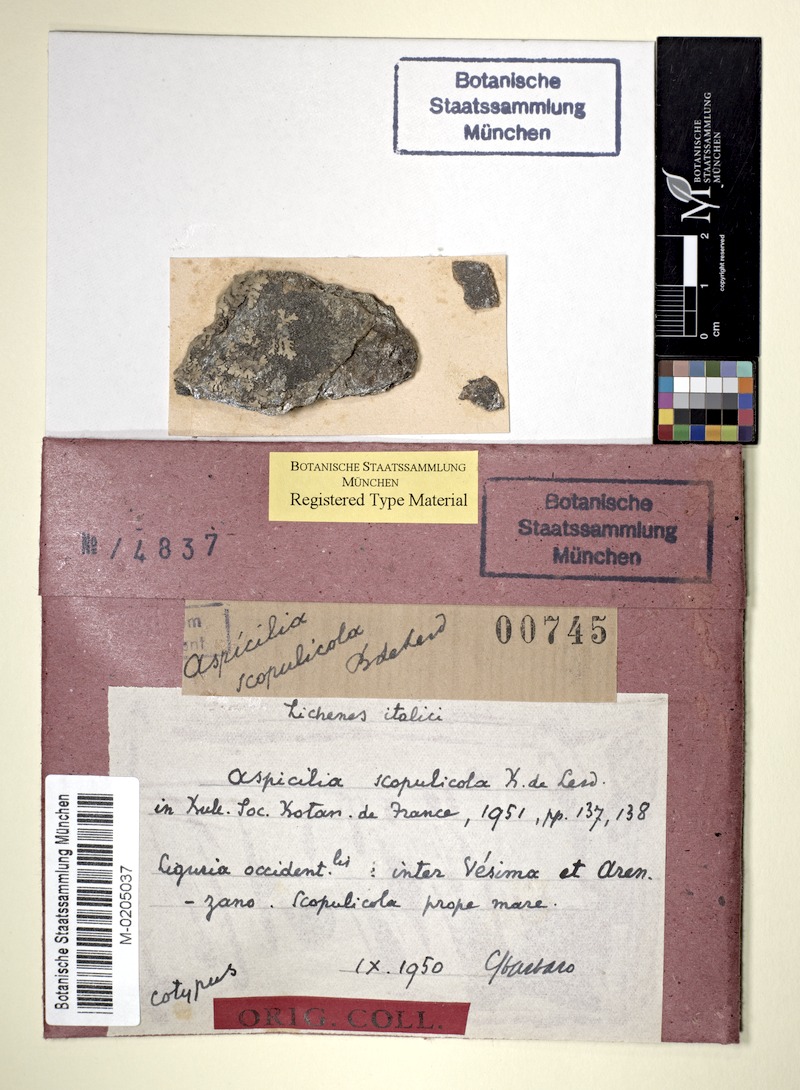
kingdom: Fungi
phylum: Ascomycota
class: Lecanoromycetes
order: Pertusariales
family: Megasporaceae
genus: Aspicilia
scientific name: Aspicilia
